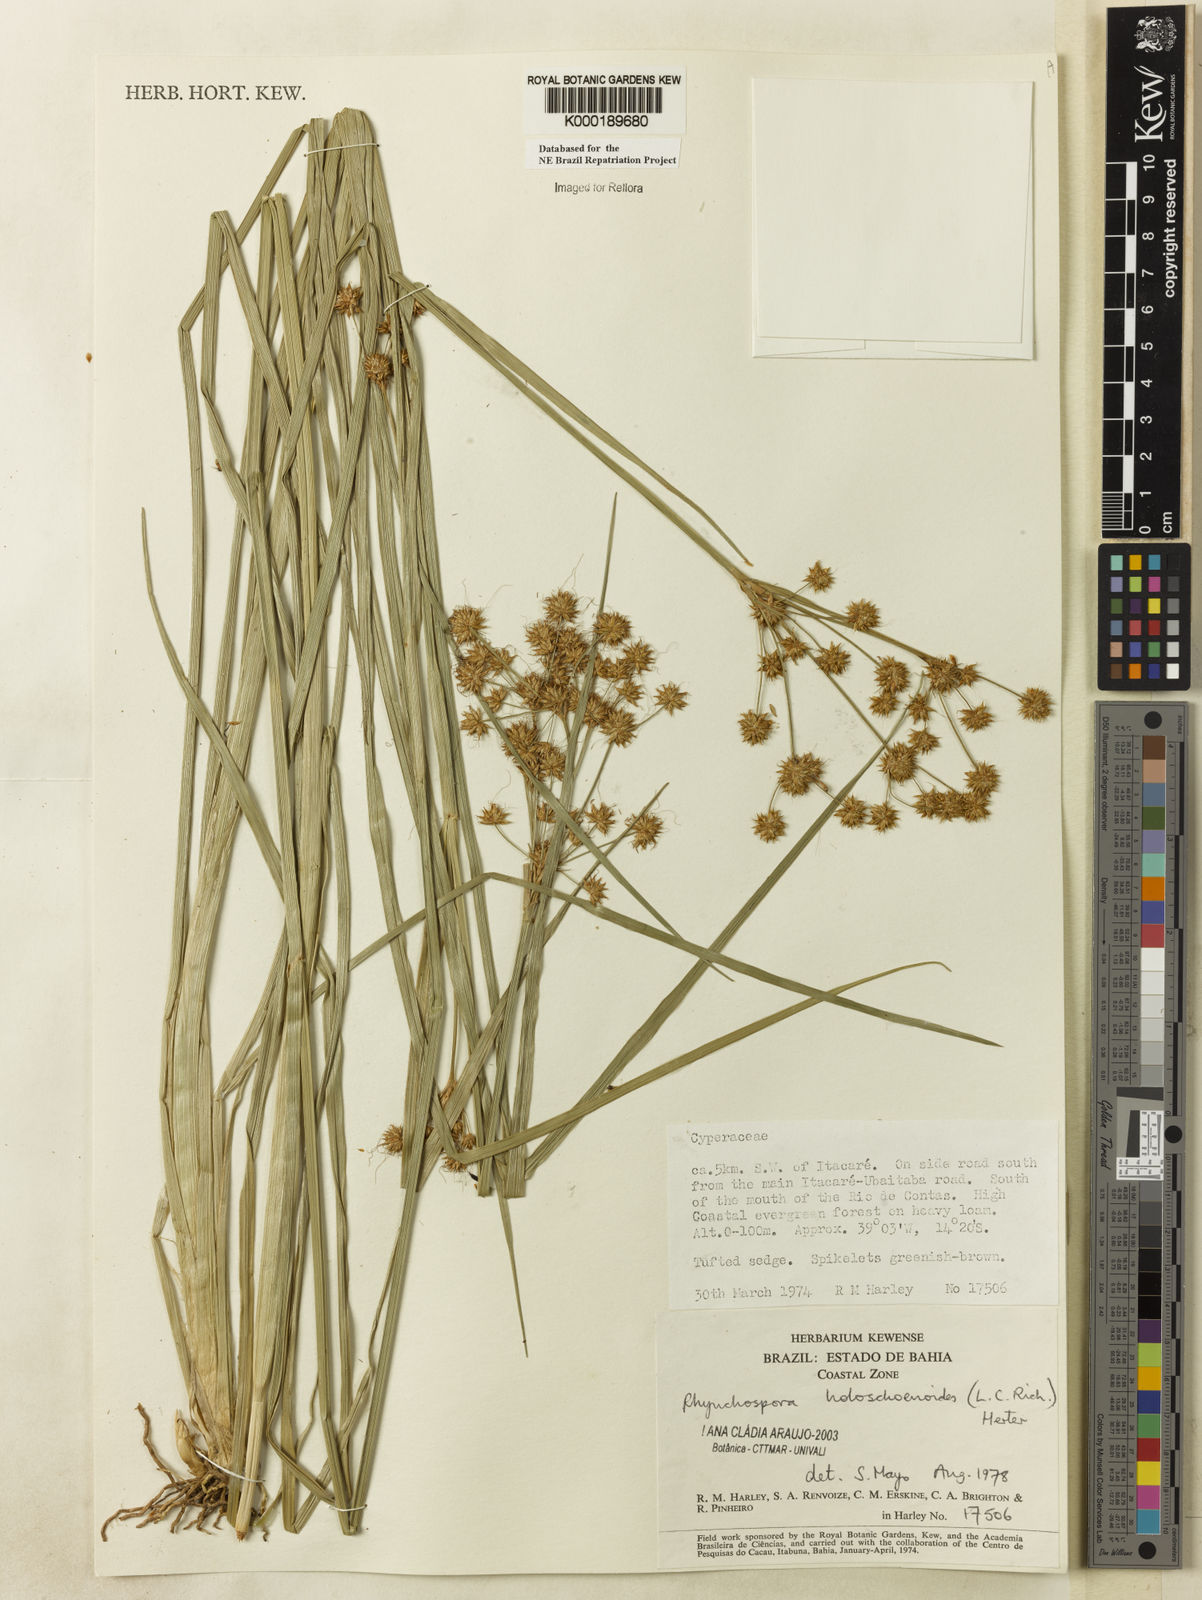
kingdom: Plantae
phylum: Tracheophyta
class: Liliopsida
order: Poales
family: Cyperaceae
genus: Rhynchospora
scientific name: Rhynchospora holoschoenoides
